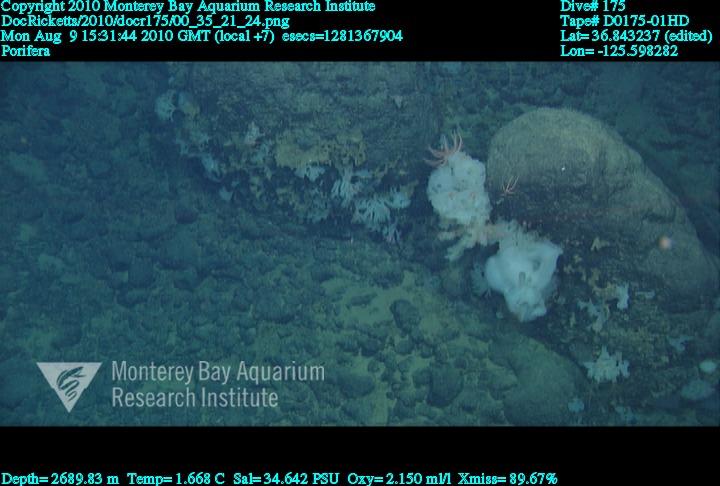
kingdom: Animalia
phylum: Porifera
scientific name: Porifera
